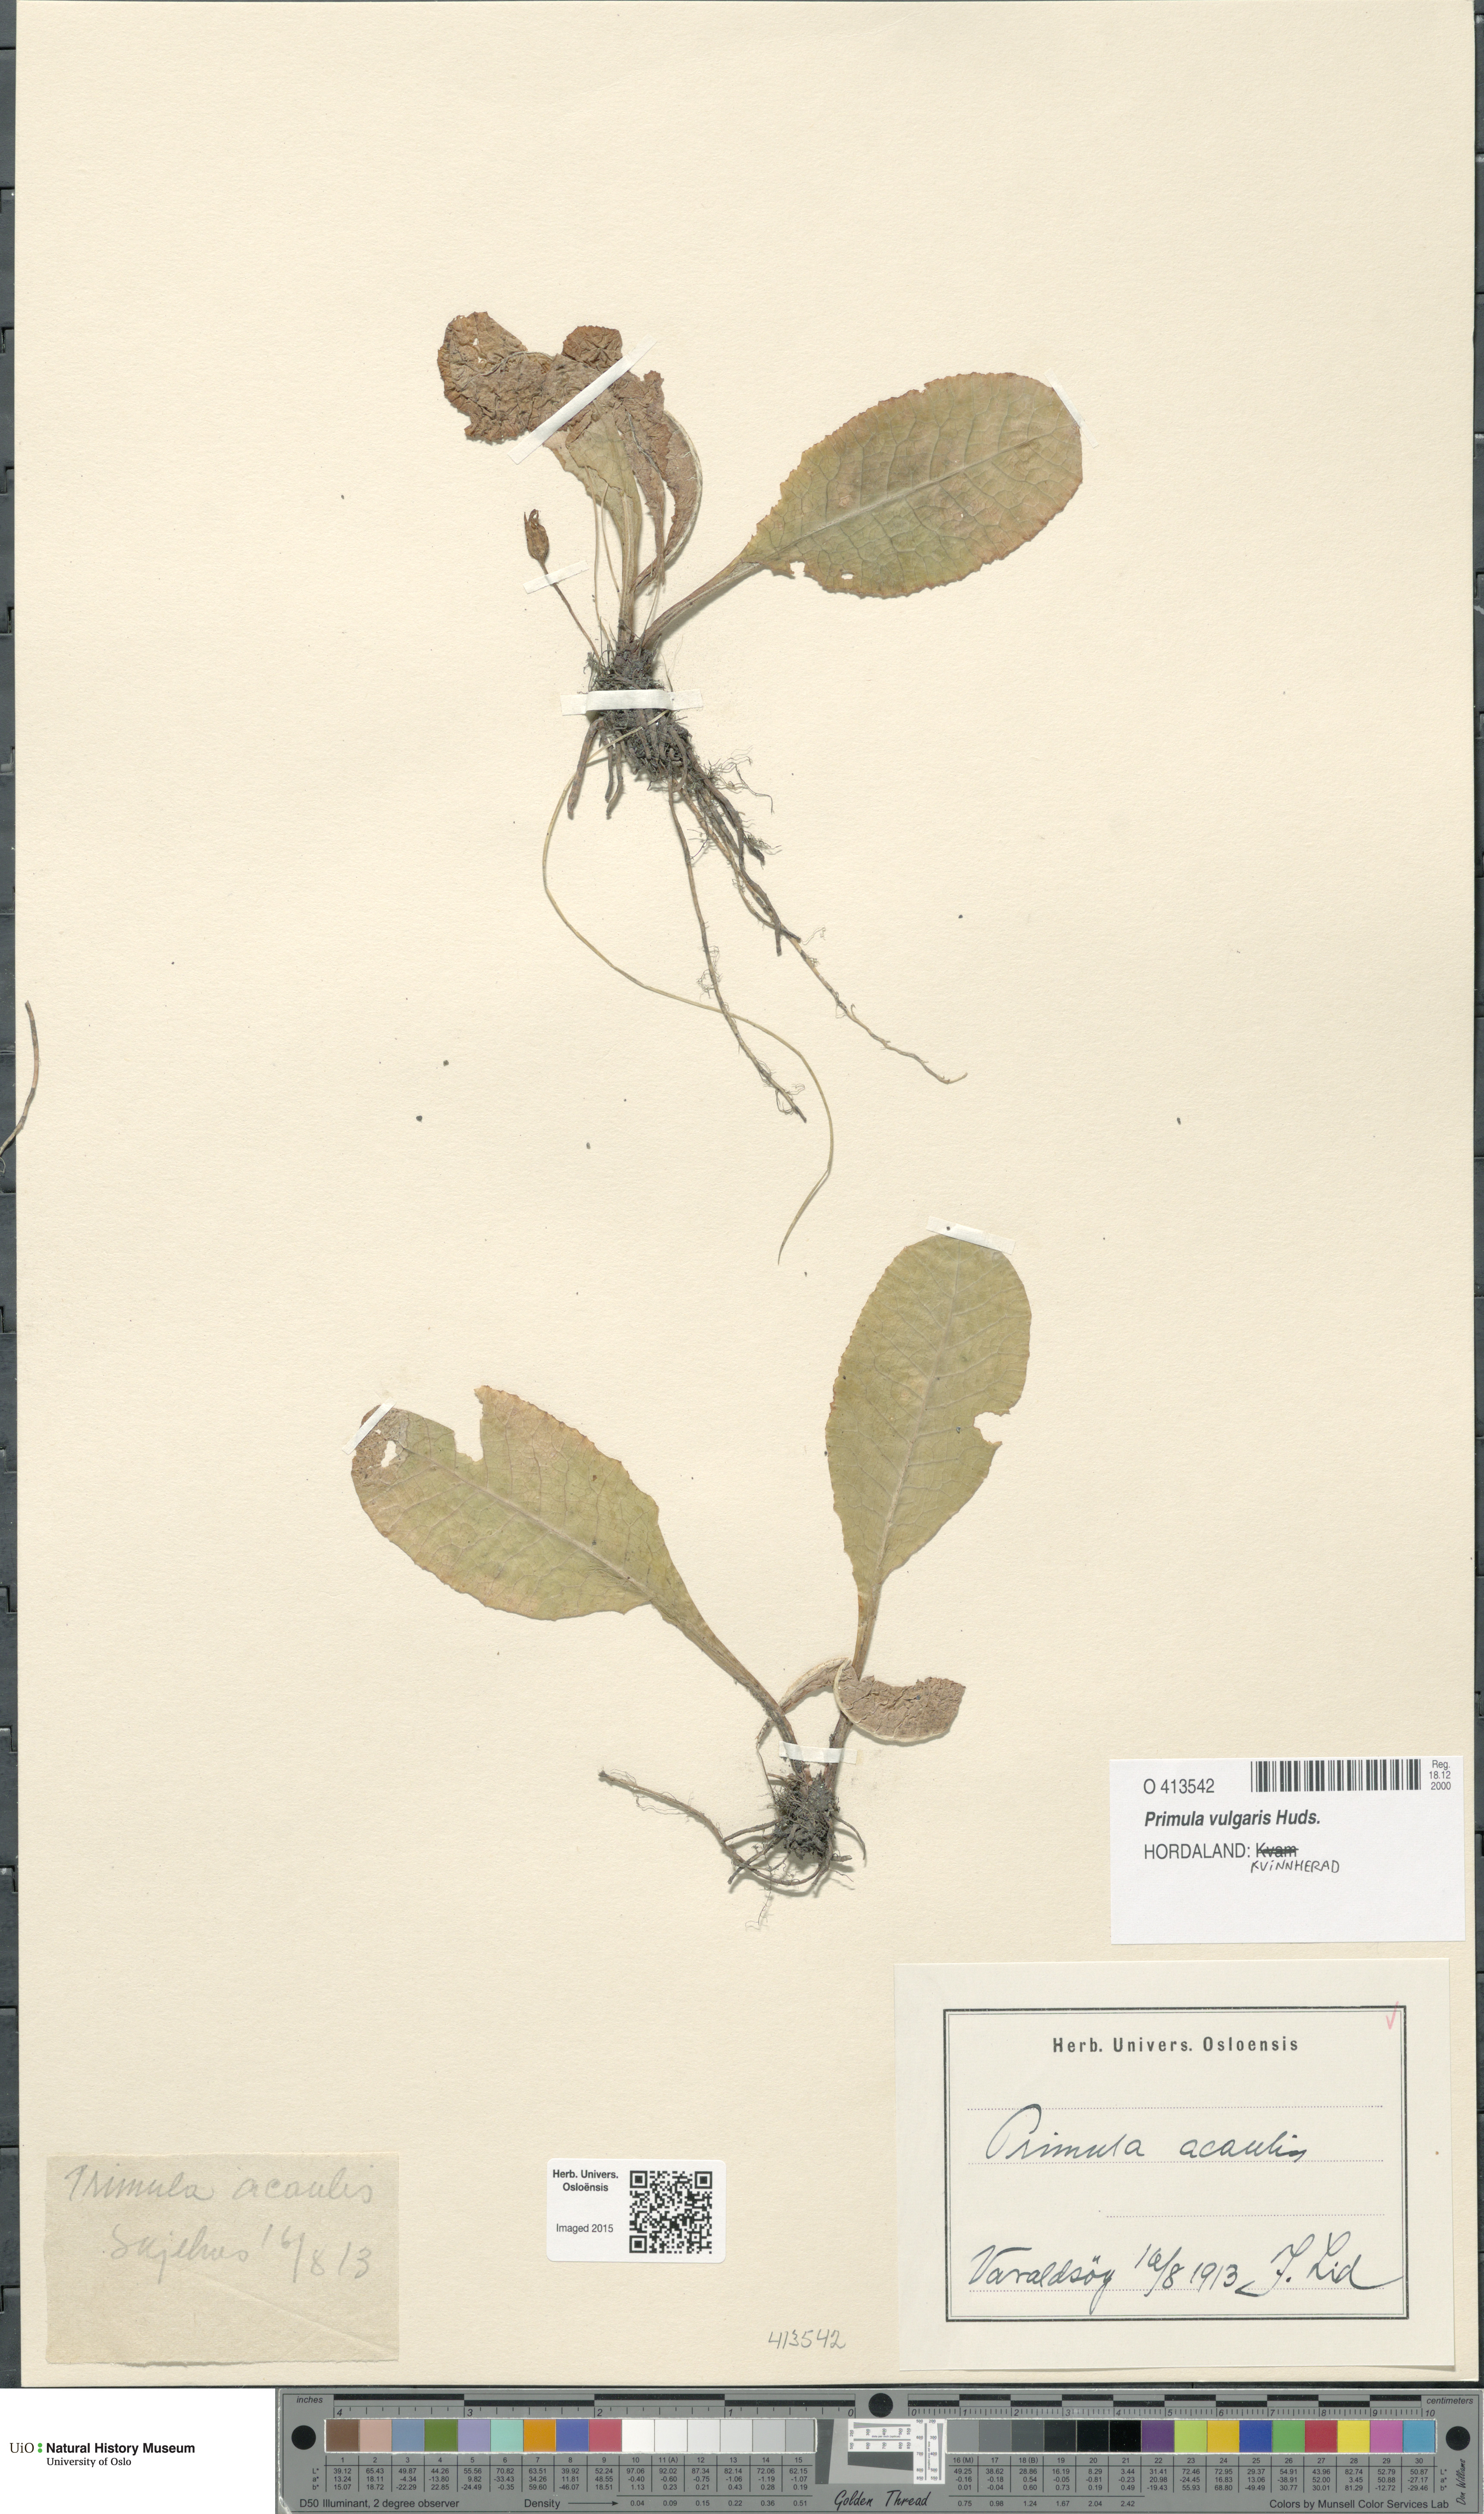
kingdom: Plantae
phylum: Tracheophyta
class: Magnoliopsida
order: Ericales
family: Primulaceae
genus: Primula
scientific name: Primula vulgaris
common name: Primrose
